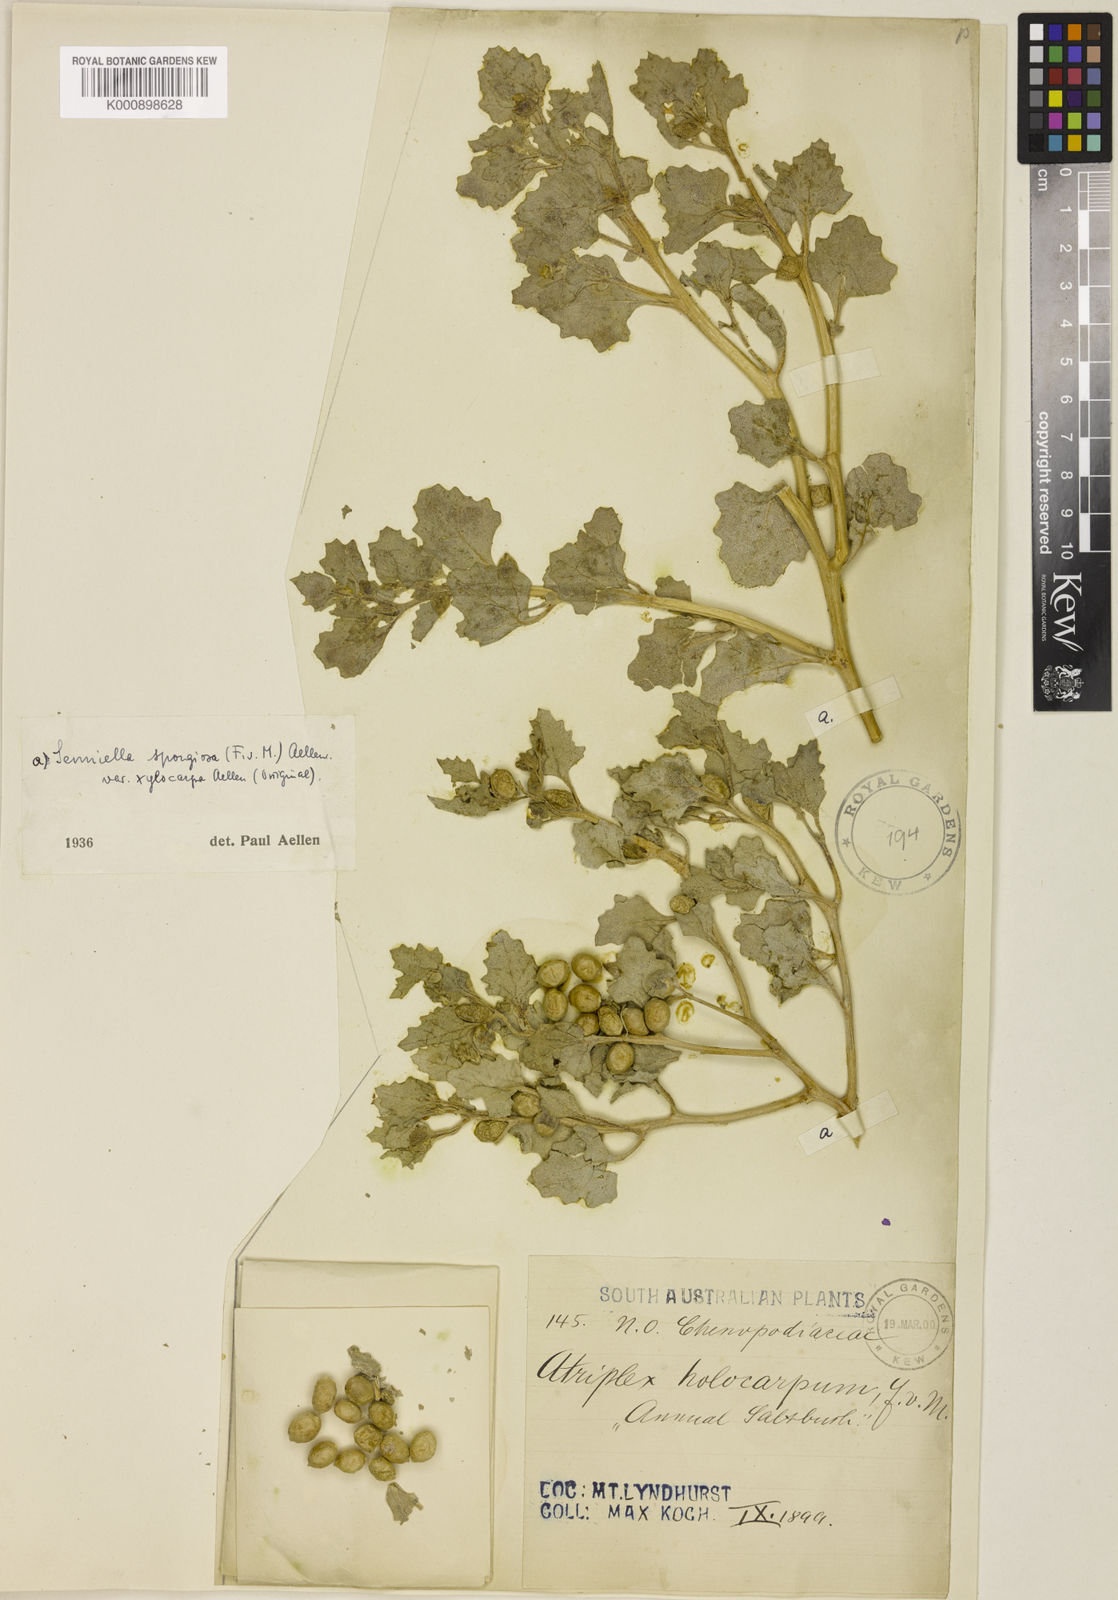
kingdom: Plantae
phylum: Tracheophyta
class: Magnoliopsida
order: Caryophyllales
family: Amaranthaceae
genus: Atriplex
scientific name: Atriplex holocarpa
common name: Pop saltbush
